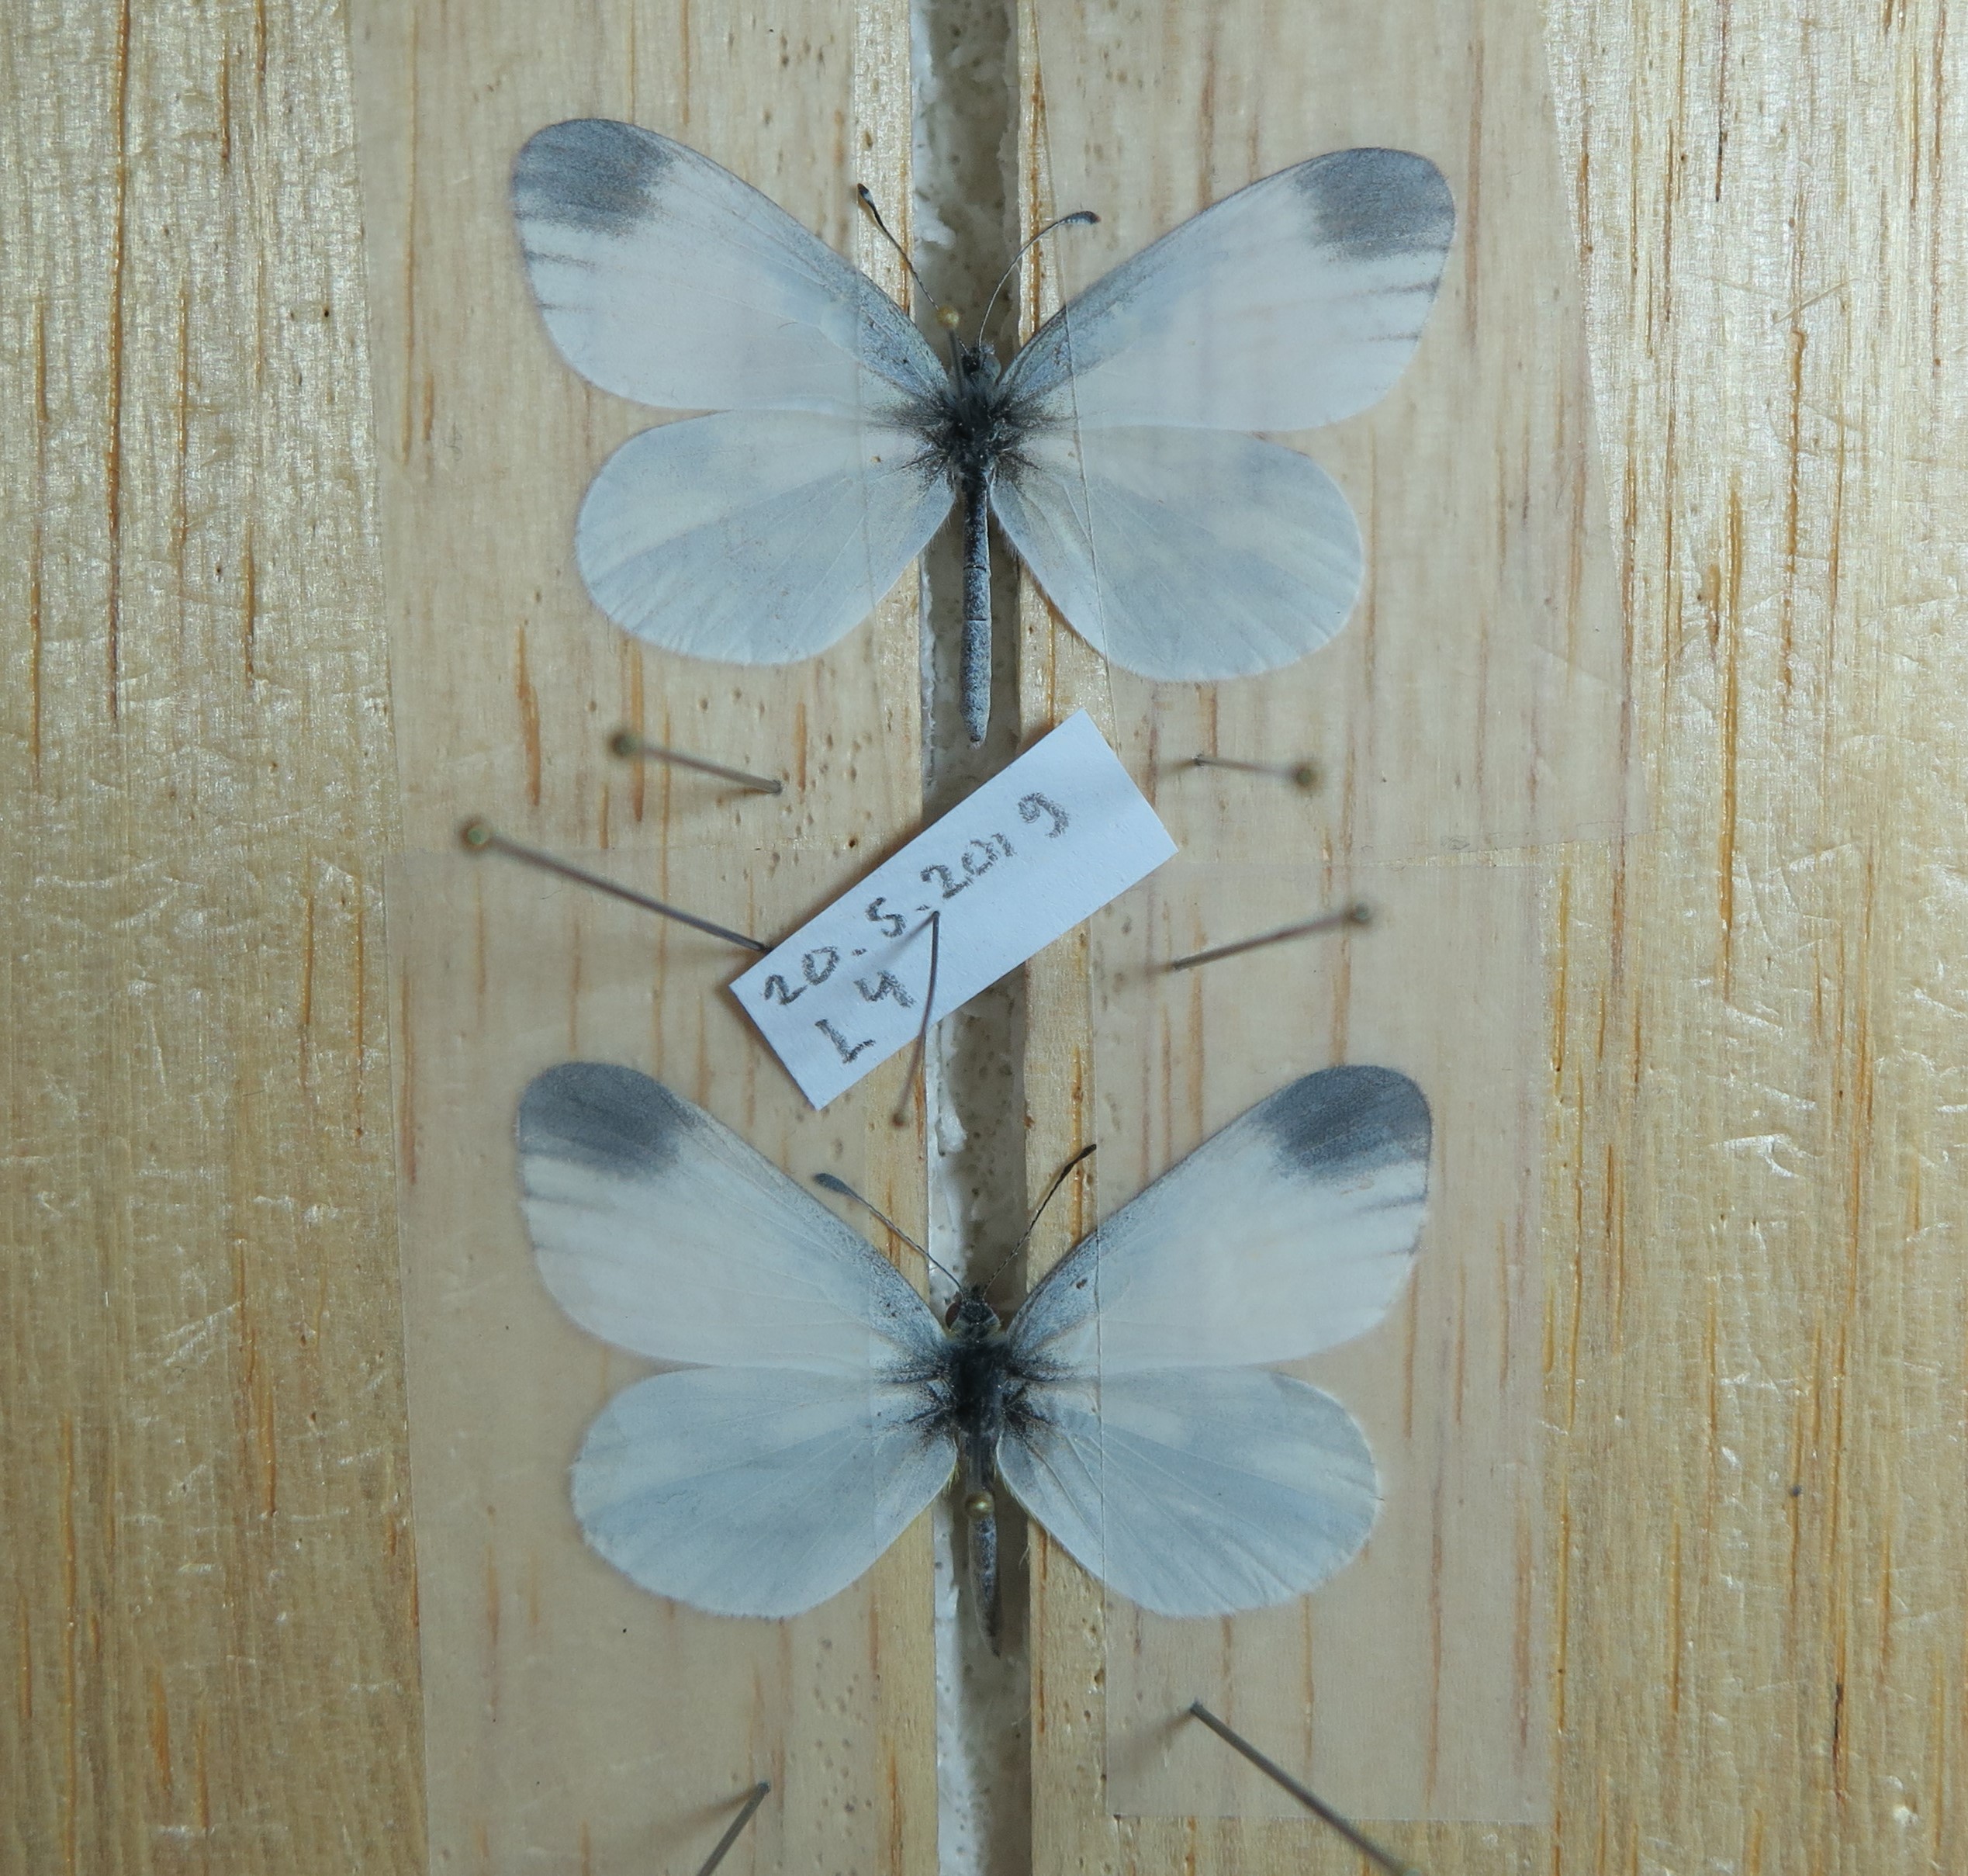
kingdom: Animalia
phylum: Arthropoda
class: Insecta
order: Lepidoptera
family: Pieridae
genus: Leptidea
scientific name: Leptidea juvernica
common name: Cryptic wood white
